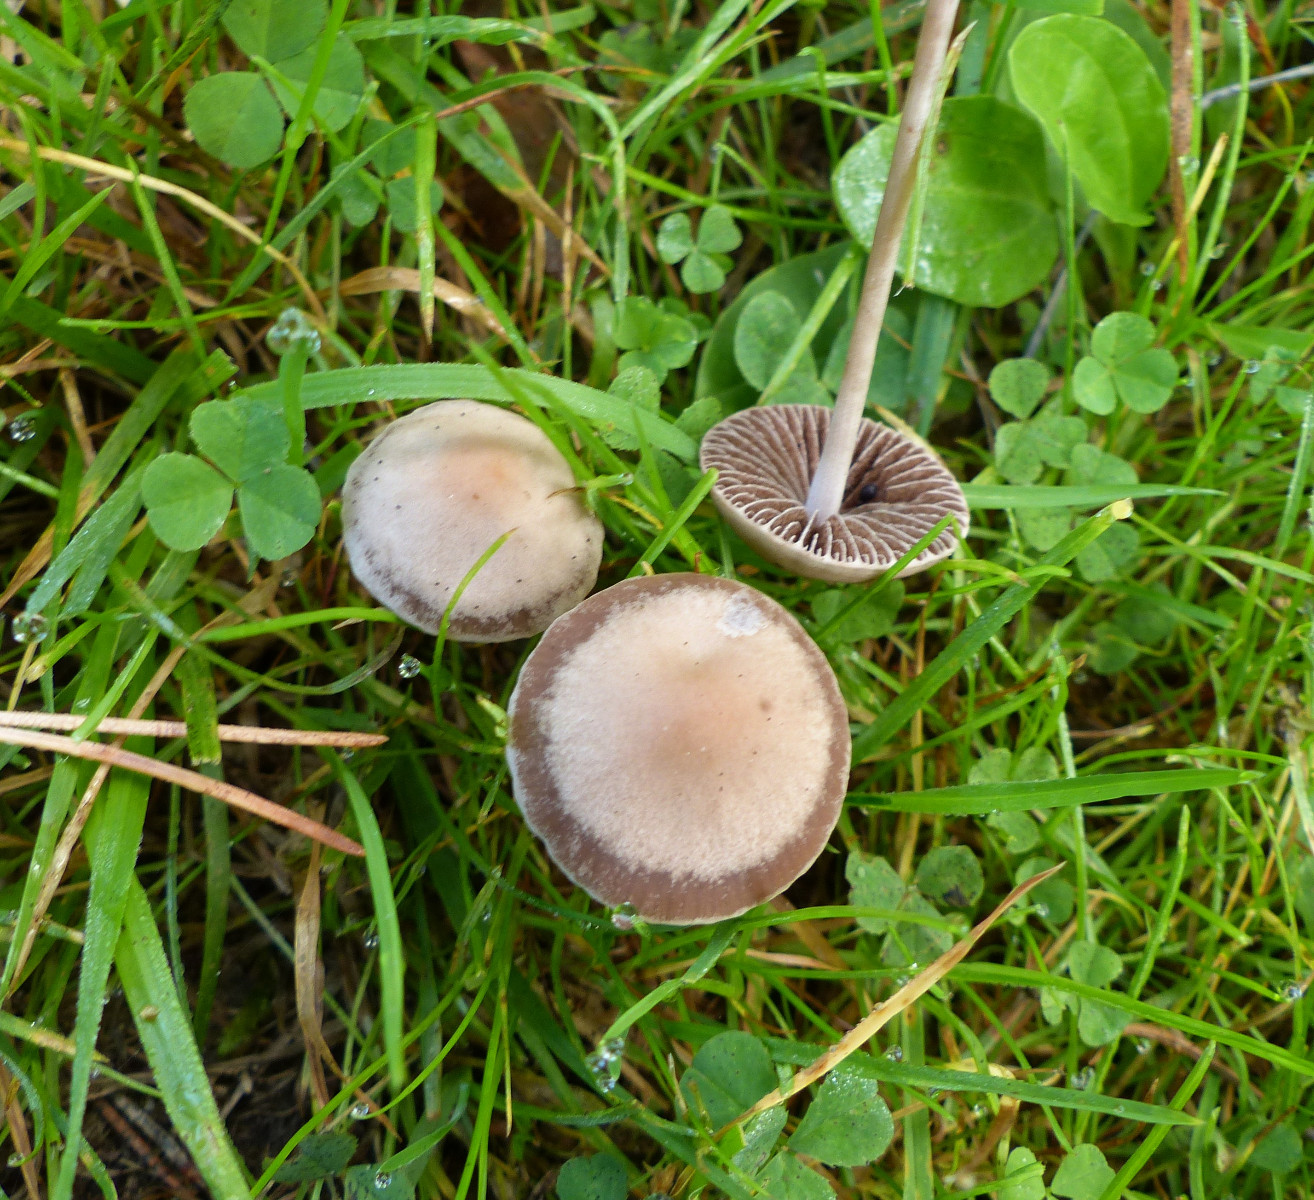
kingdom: Fungi
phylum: Basidiomycota
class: Agaricomycetes
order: Agaricales
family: Bolbitiaceae
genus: Panaeolina
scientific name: Panaeolina foenisecii
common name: høslætsvamp
